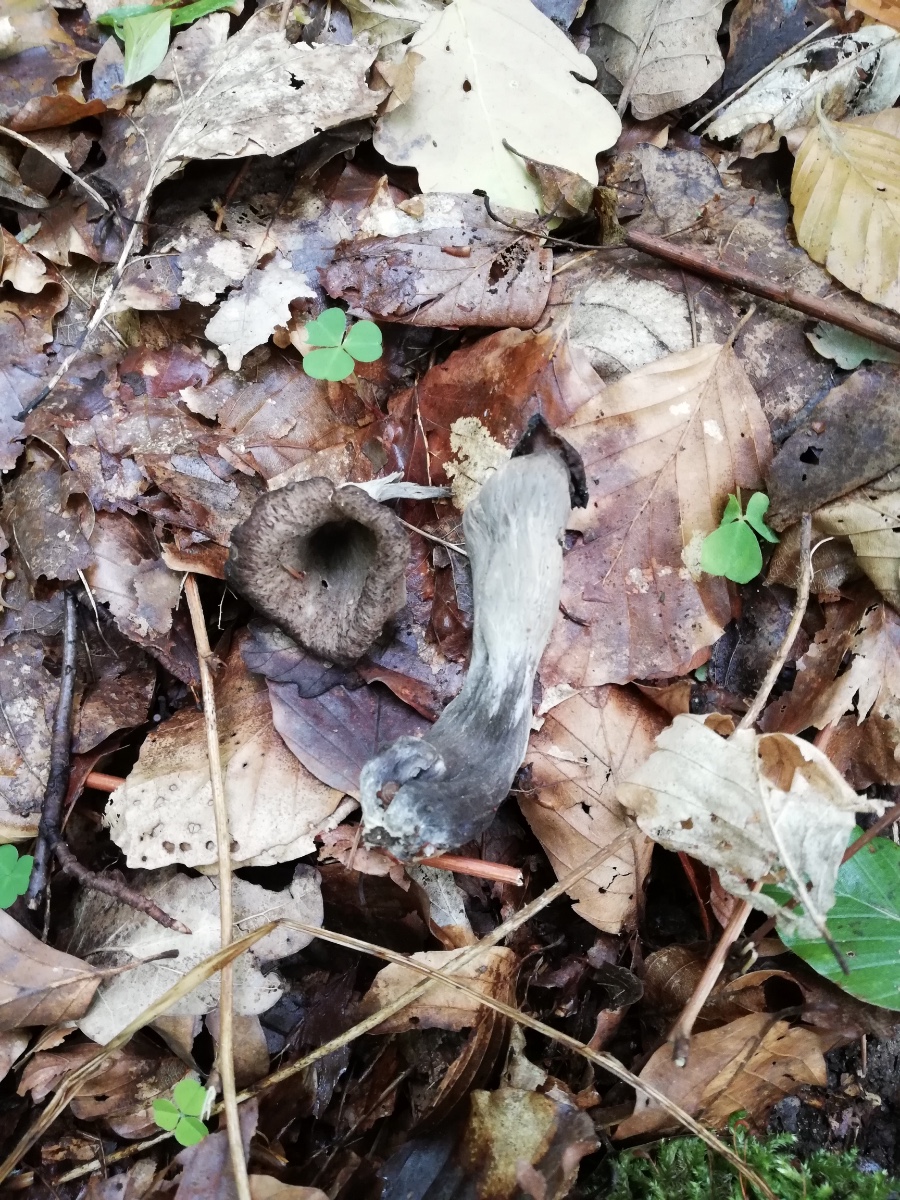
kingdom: Fungi
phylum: Basidiomycota
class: Agaricomycetes
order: Cantharellales
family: Hydnaceae
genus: Craterellus
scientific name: Craterellus cornucopioides
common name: trompetsvamp
